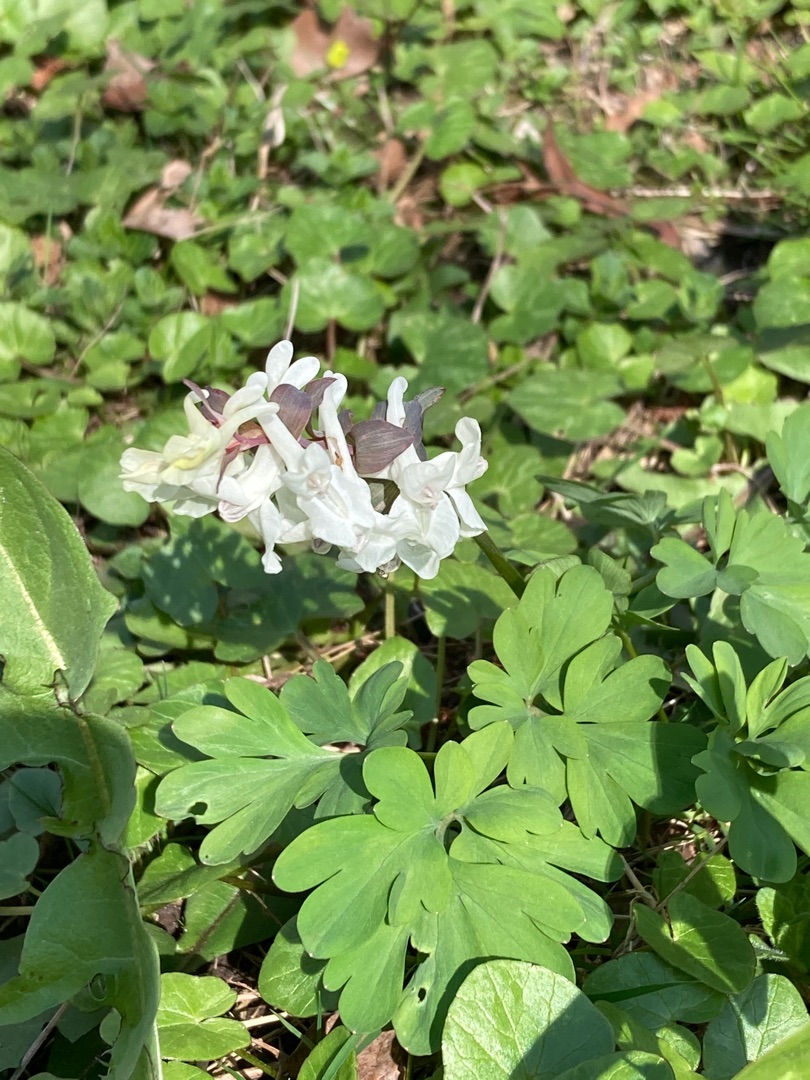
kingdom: Plantae
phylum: Tracheophyta
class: Magnoliopsida
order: Ranunculales
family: Papaveraceae
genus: Corydalis
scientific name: Corydalis cava
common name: Hulrodet lærkespore
